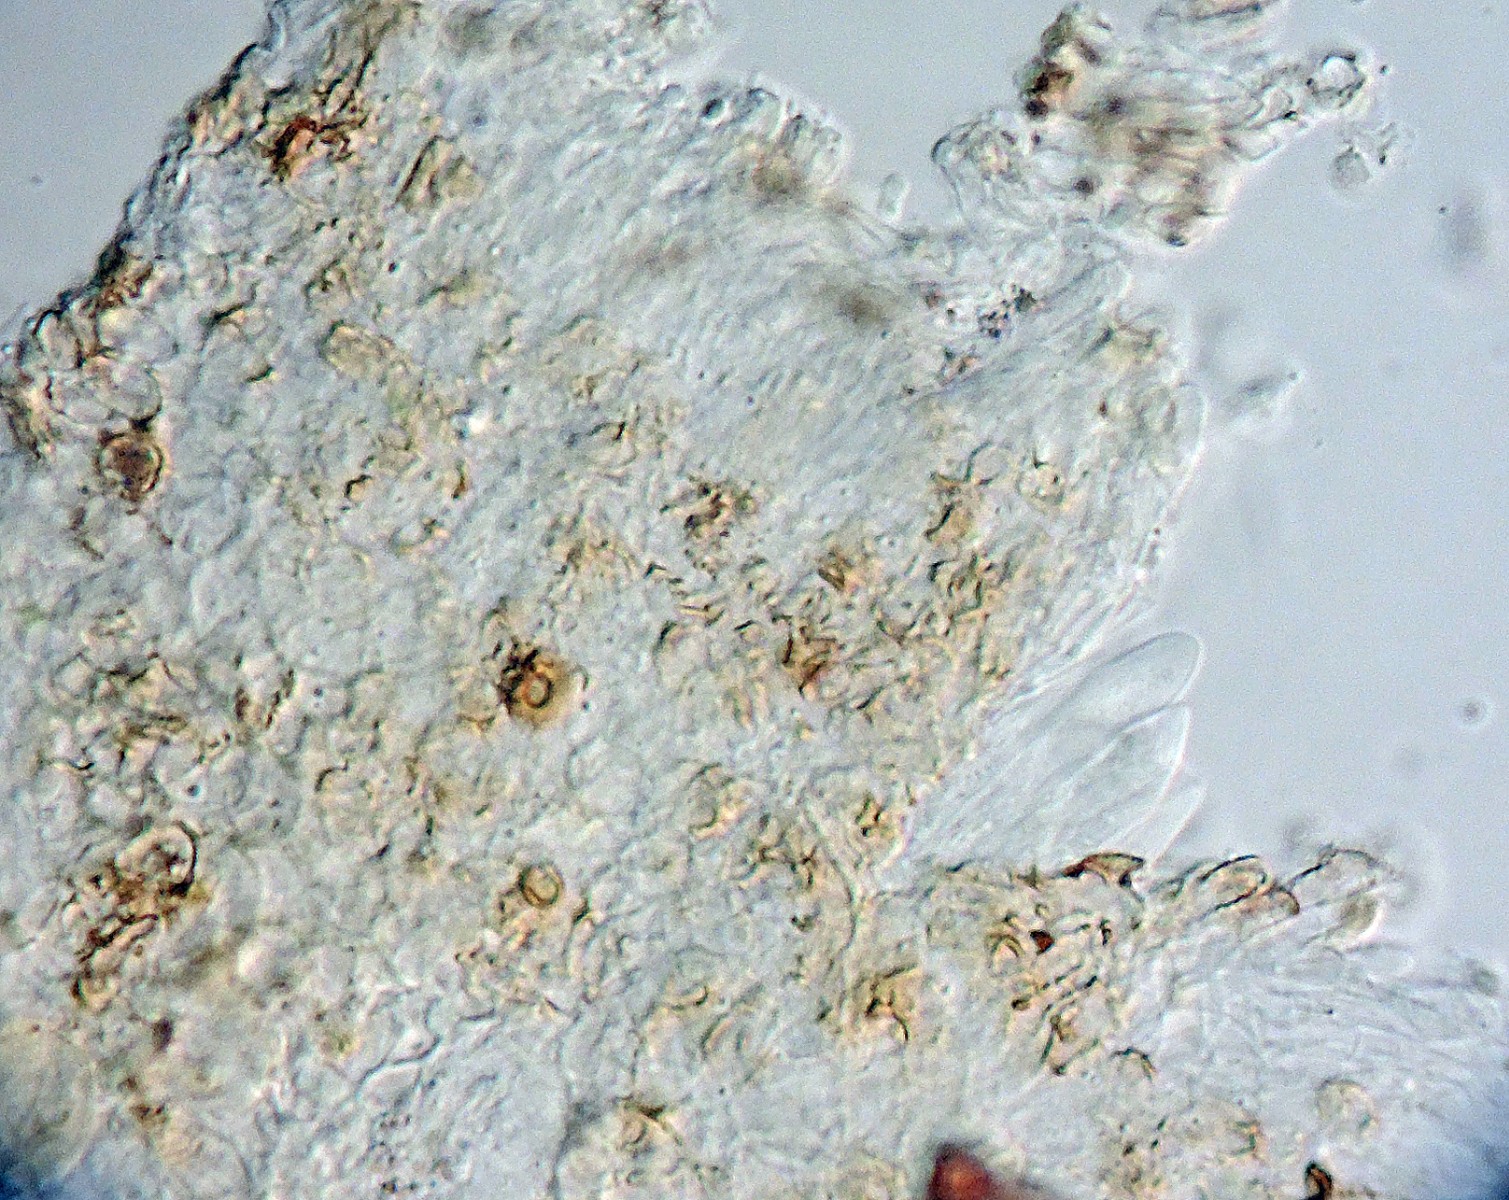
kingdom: Fungi
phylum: Ascomycota
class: Leotiomycetes
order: Helotiales
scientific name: Helotiales
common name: stilkskiveordenen
